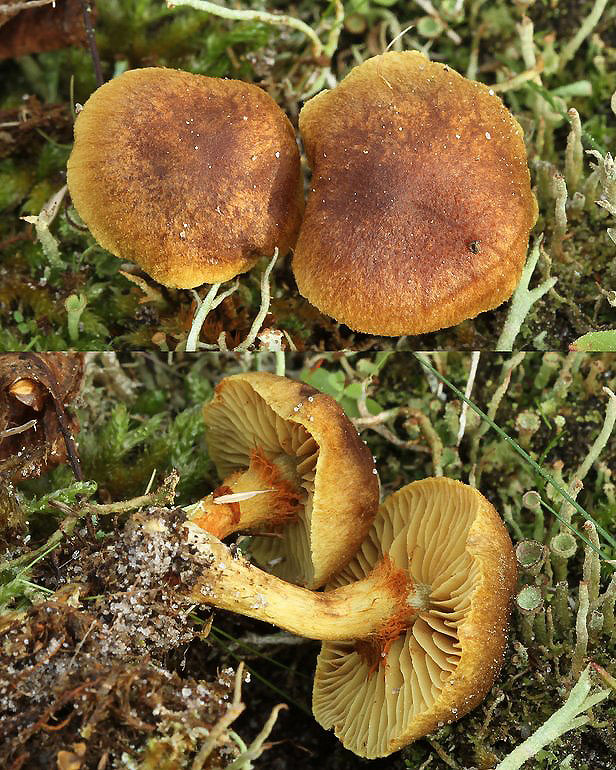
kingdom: Fungi
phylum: Basidiomycota
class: Agaricomycetes
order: Agaricales
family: Cortinariaceae
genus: Cortinarius
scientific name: Cortinarius pratensis
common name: hede-slørhat
